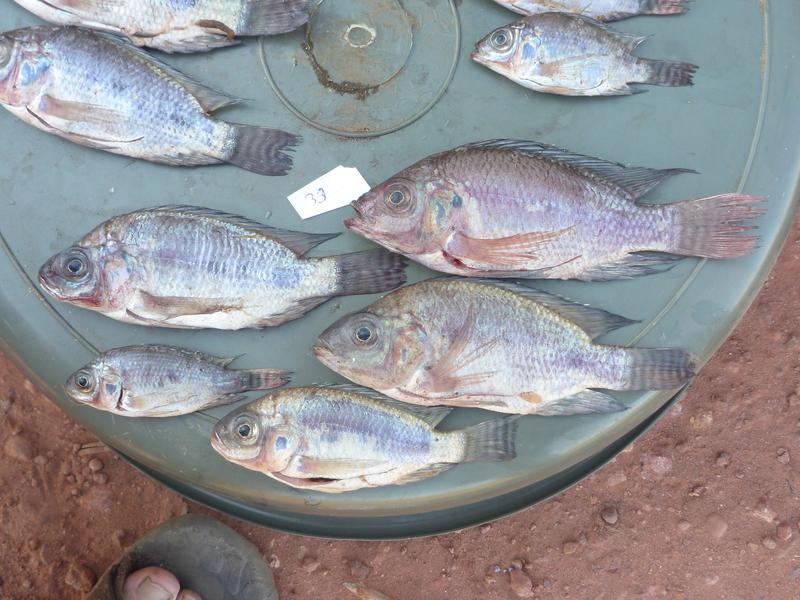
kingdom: Animalia
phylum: Chordata
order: Perciformes
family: Cichlidae
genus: Oreochromis
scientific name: Oreochromis niloticus
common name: Nile tilapia
